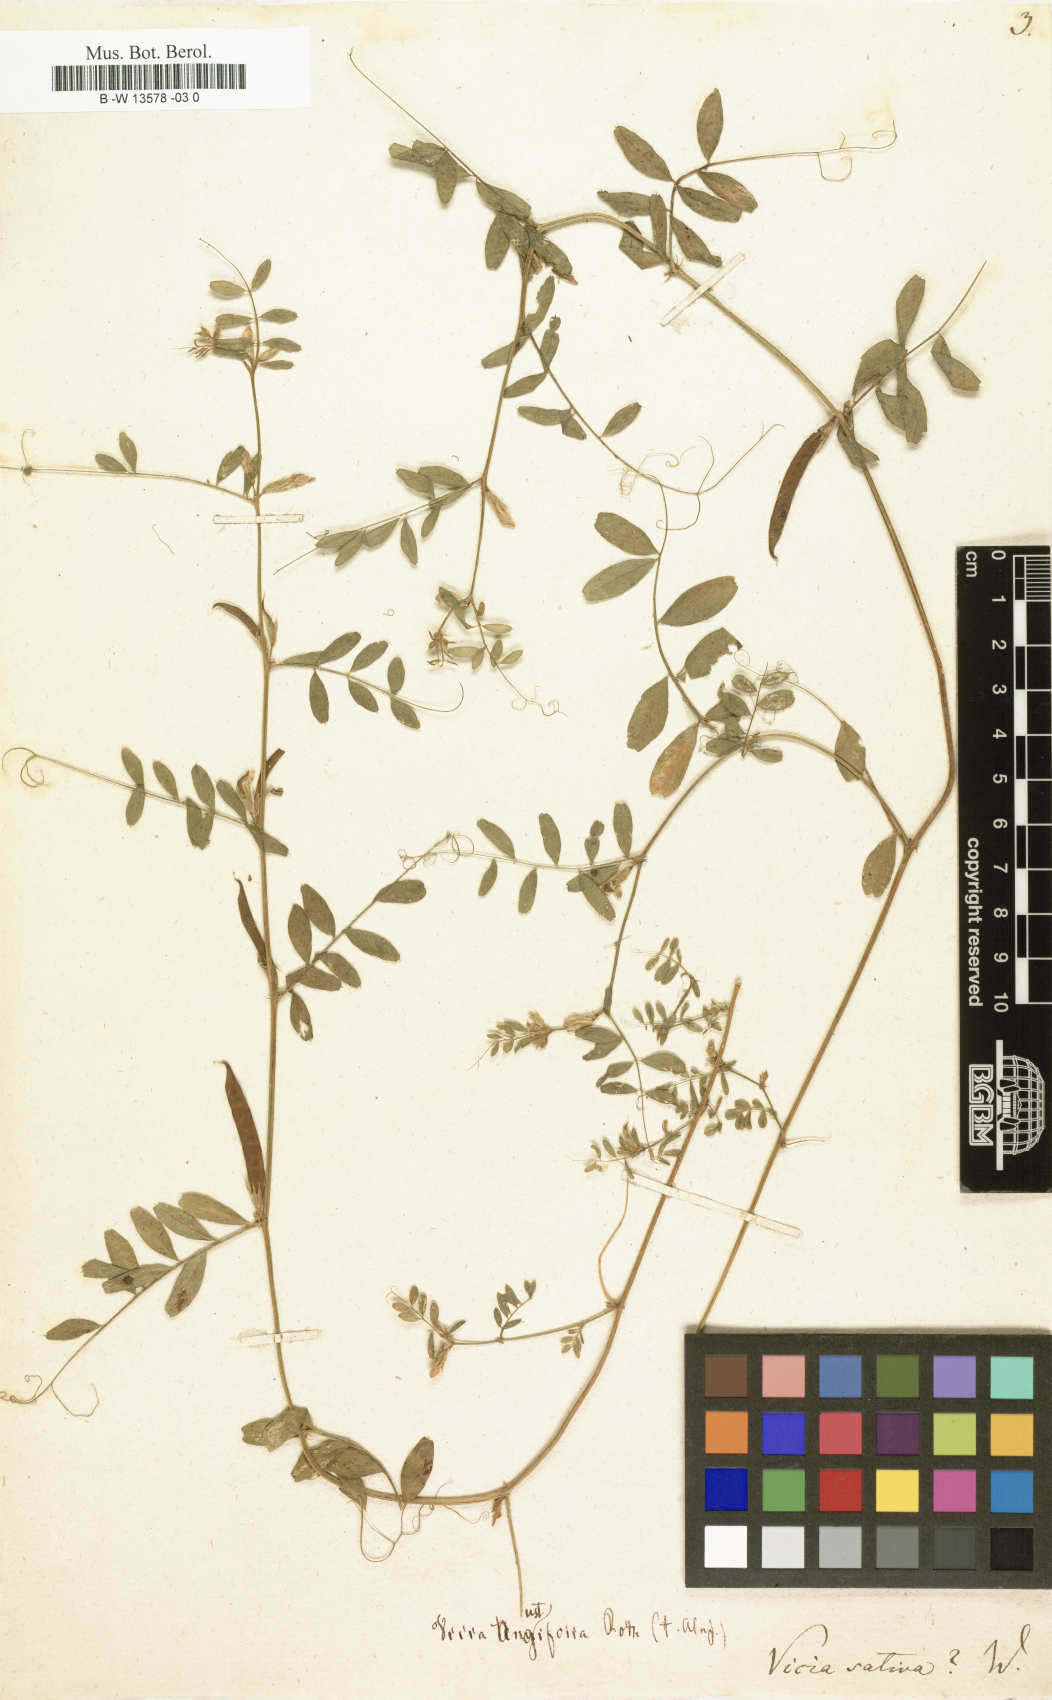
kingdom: Plantae
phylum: Tracheophyta
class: Magnoliopsida
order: Fabales
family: Fabaceae
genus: Vicia
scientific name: Vicia sativa
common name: Garden vetch
